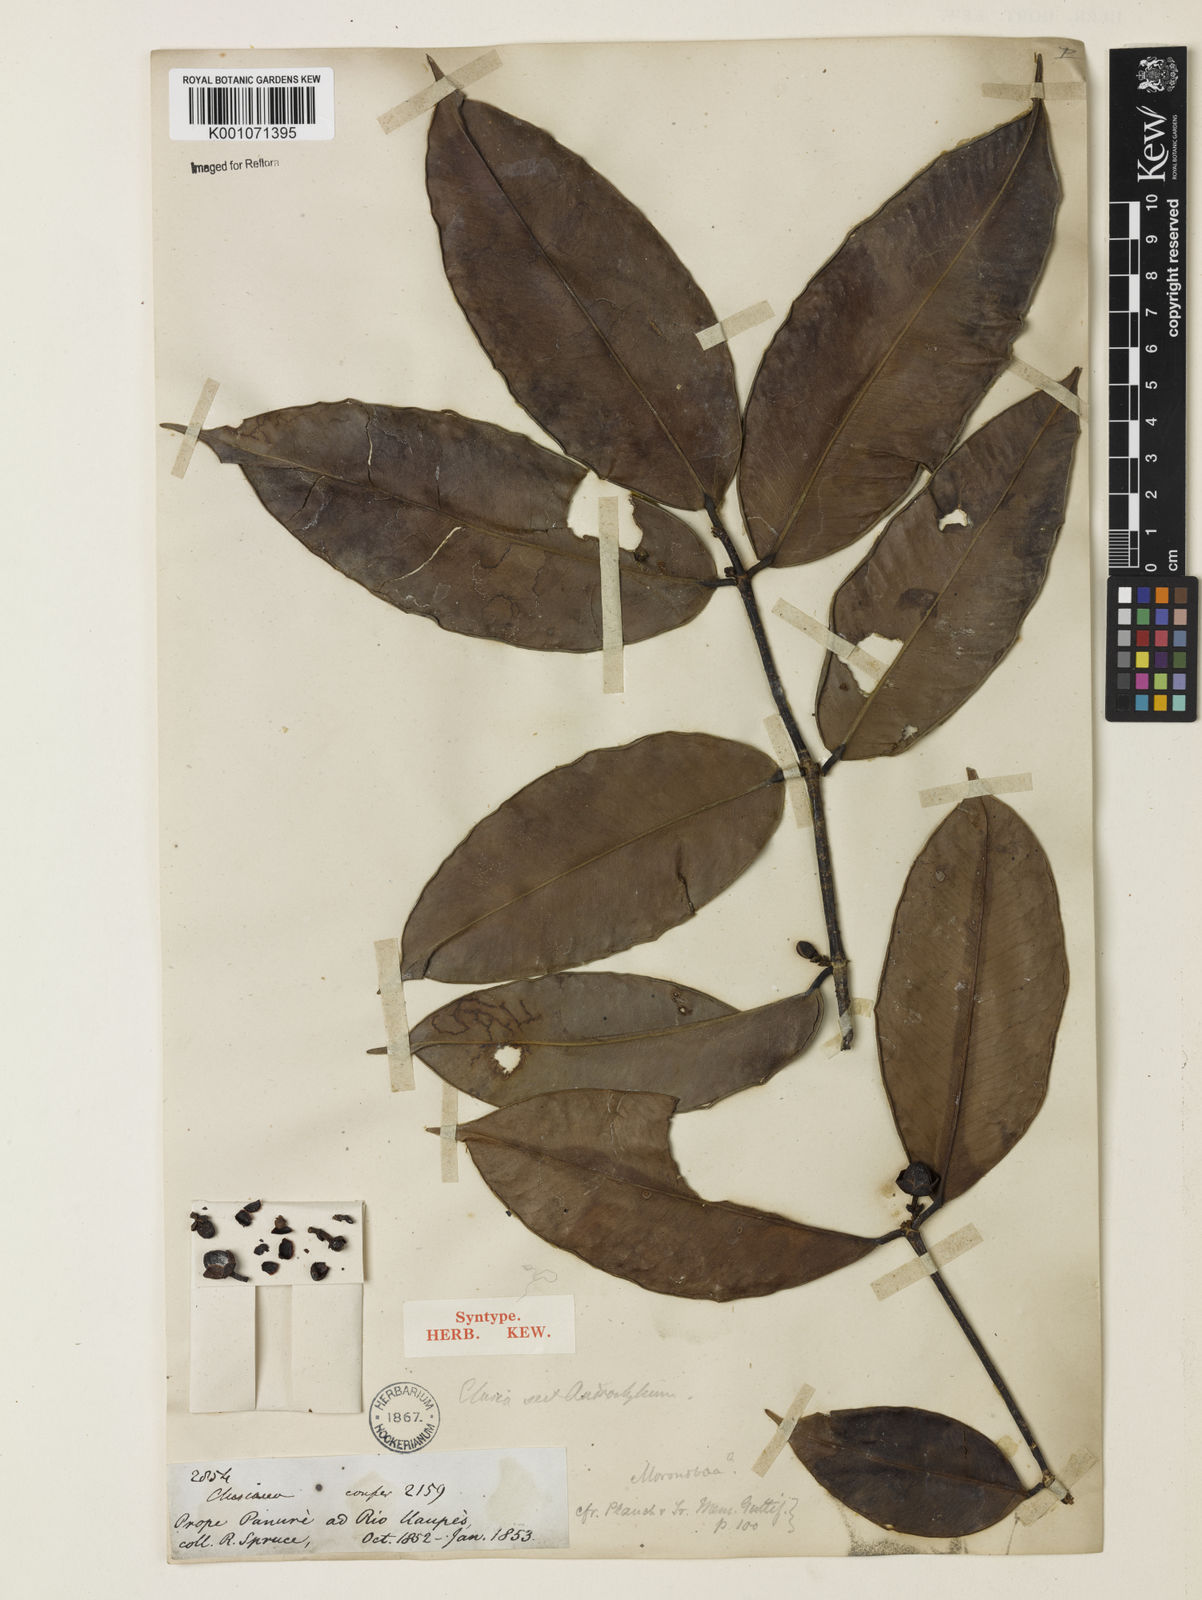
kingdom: Plantae
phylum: Tracheophyta
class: Magnoliopsida
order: Malpighiales
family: Calophyllaceae
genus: Clusiella
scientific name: Clusiella axillaris
